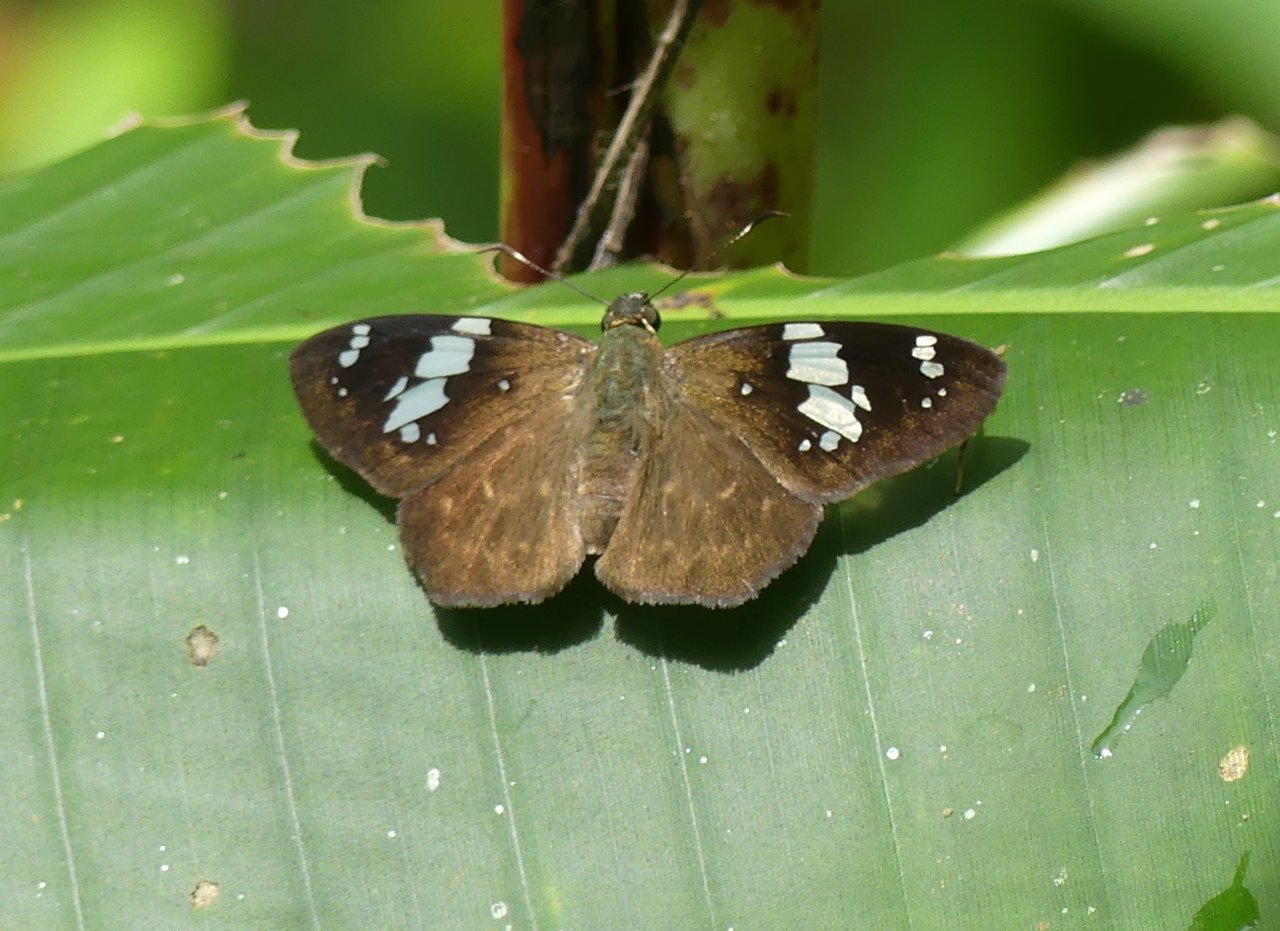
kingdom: Animalia
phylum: Arthropoda
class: Insecta
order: Lepidoptera
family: Hesperiidae
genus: Celaenorrhinus
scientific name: Celaenorrhinus eligius
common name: Eligius Flat
